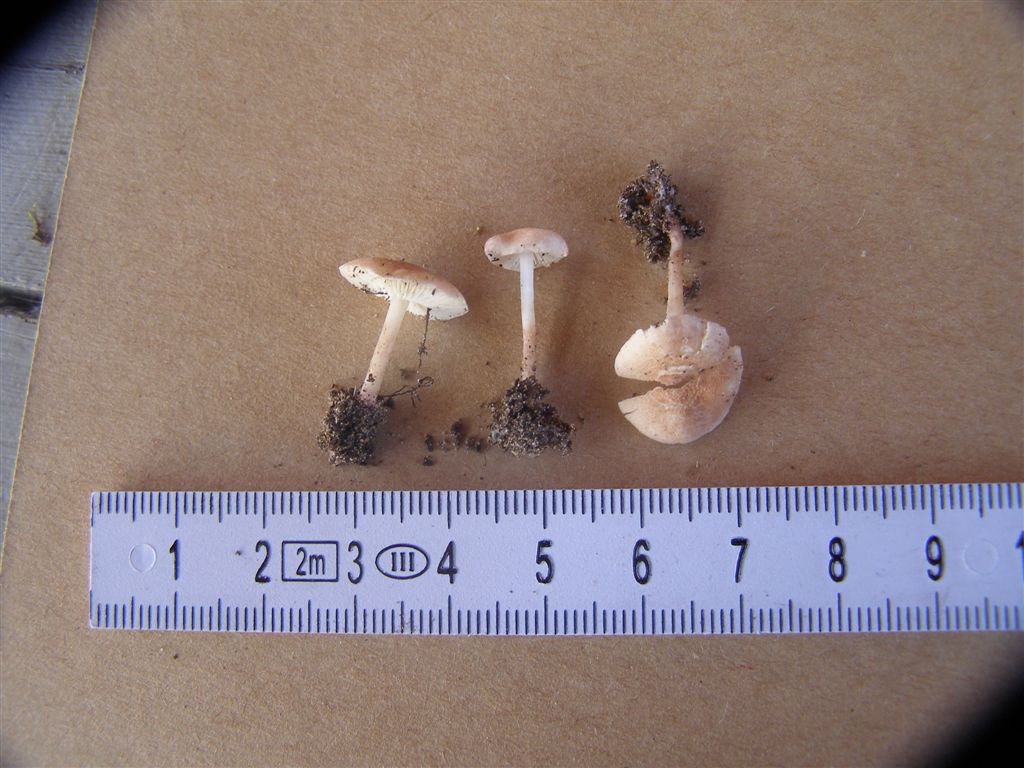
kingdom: Fungi
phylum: Basidiomycota
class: Agaricomycetes
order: Agaricales
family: Agaricaceae
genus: Cystolepiota
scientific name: Cystolepiota moelleri
